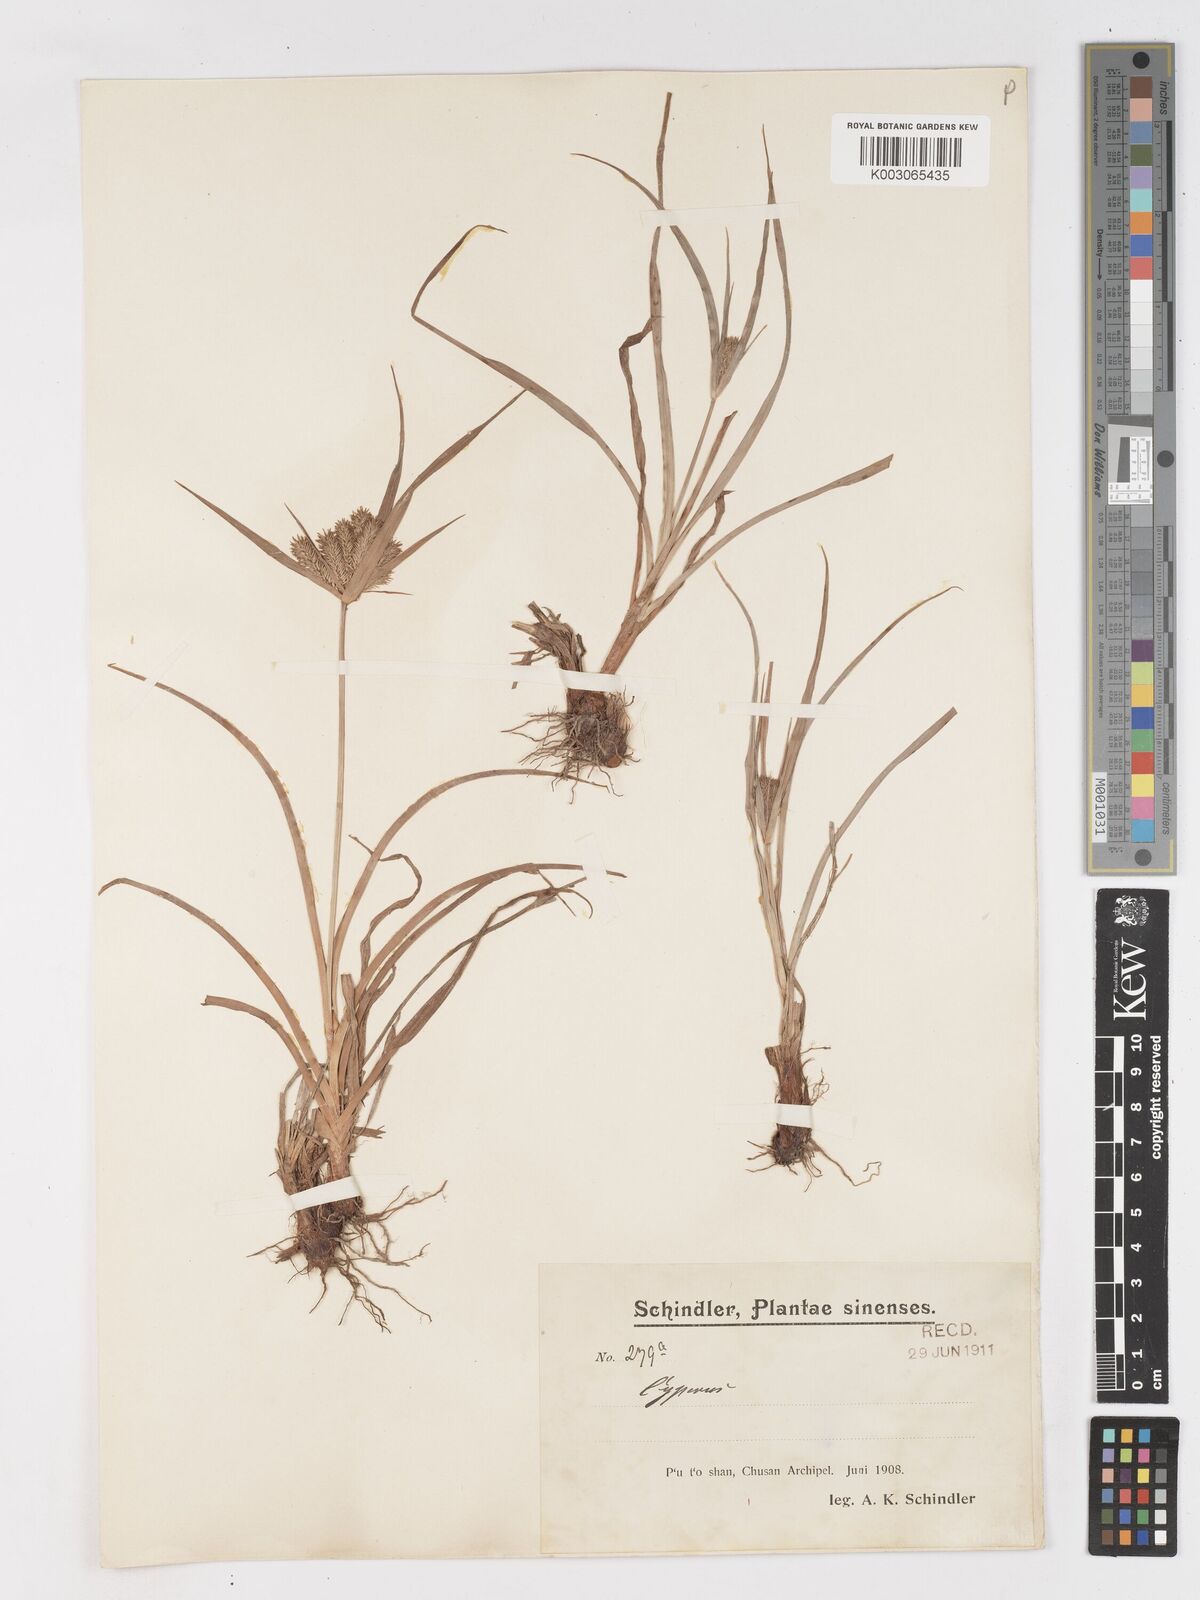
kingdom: Plantae
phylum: Tracheophyta
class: Liliopsida
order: Poales
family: Cyperaceae
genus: Cyperus
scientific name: Cyperus
